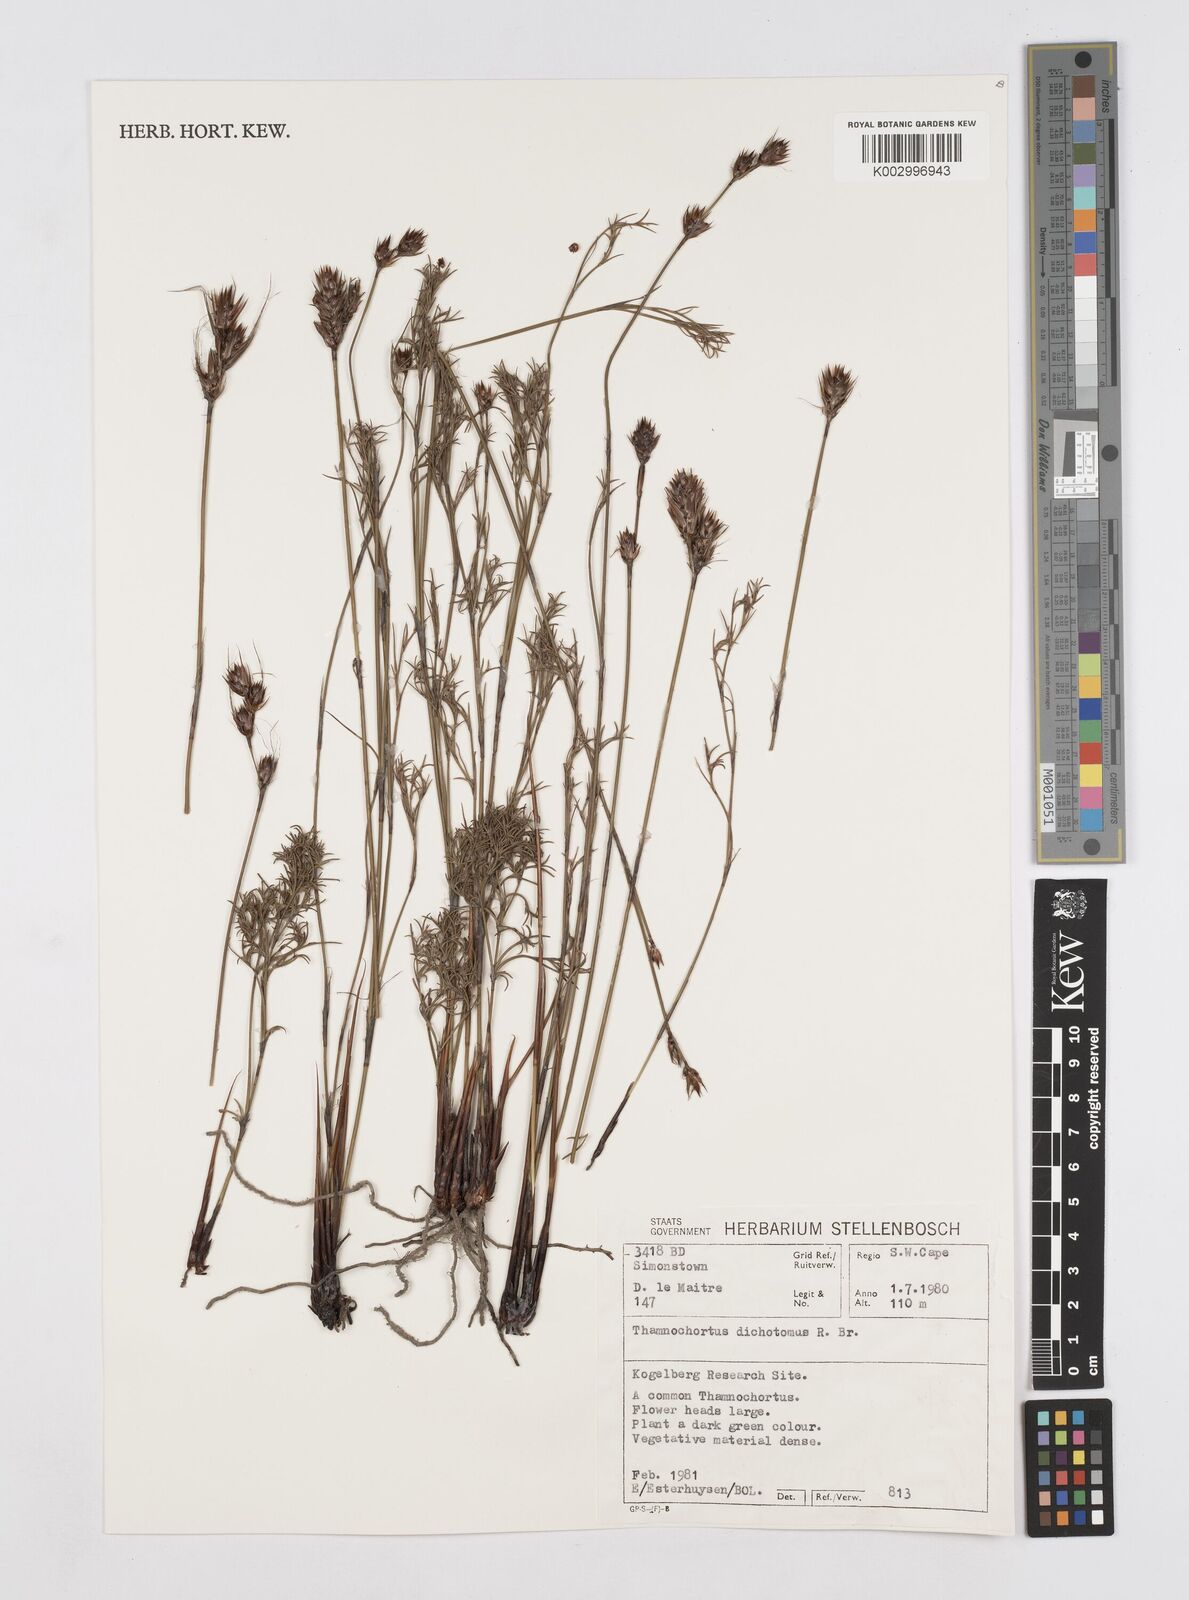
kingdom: Plantae
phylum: Tracheophyta
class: Liliopsida
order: Poales
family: Restionaceae
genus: Thamnochortus
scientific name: Thamnochortus lucens
